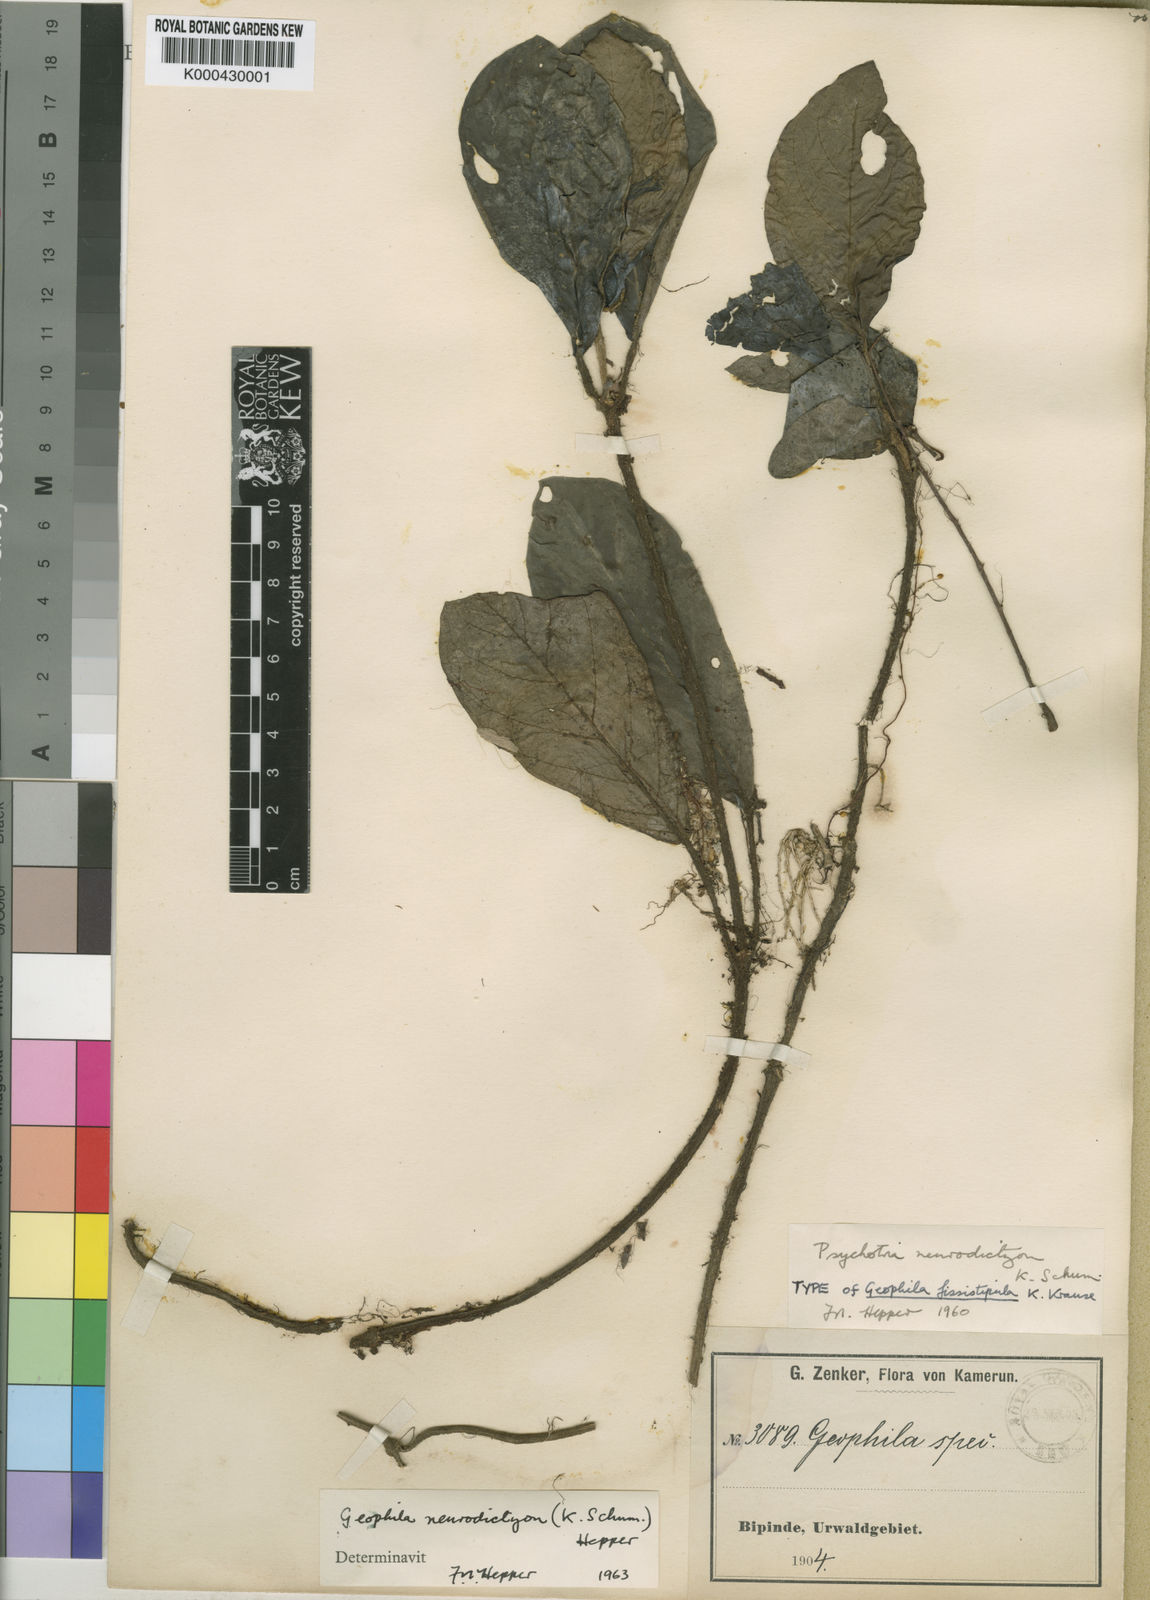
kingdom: Plantae
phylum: Tracheophyta
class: Magnoliopsida
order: Gentianales
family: Rubiaceae
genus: Hymenocoleus
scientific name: Hymenocoleus neurodictyon
